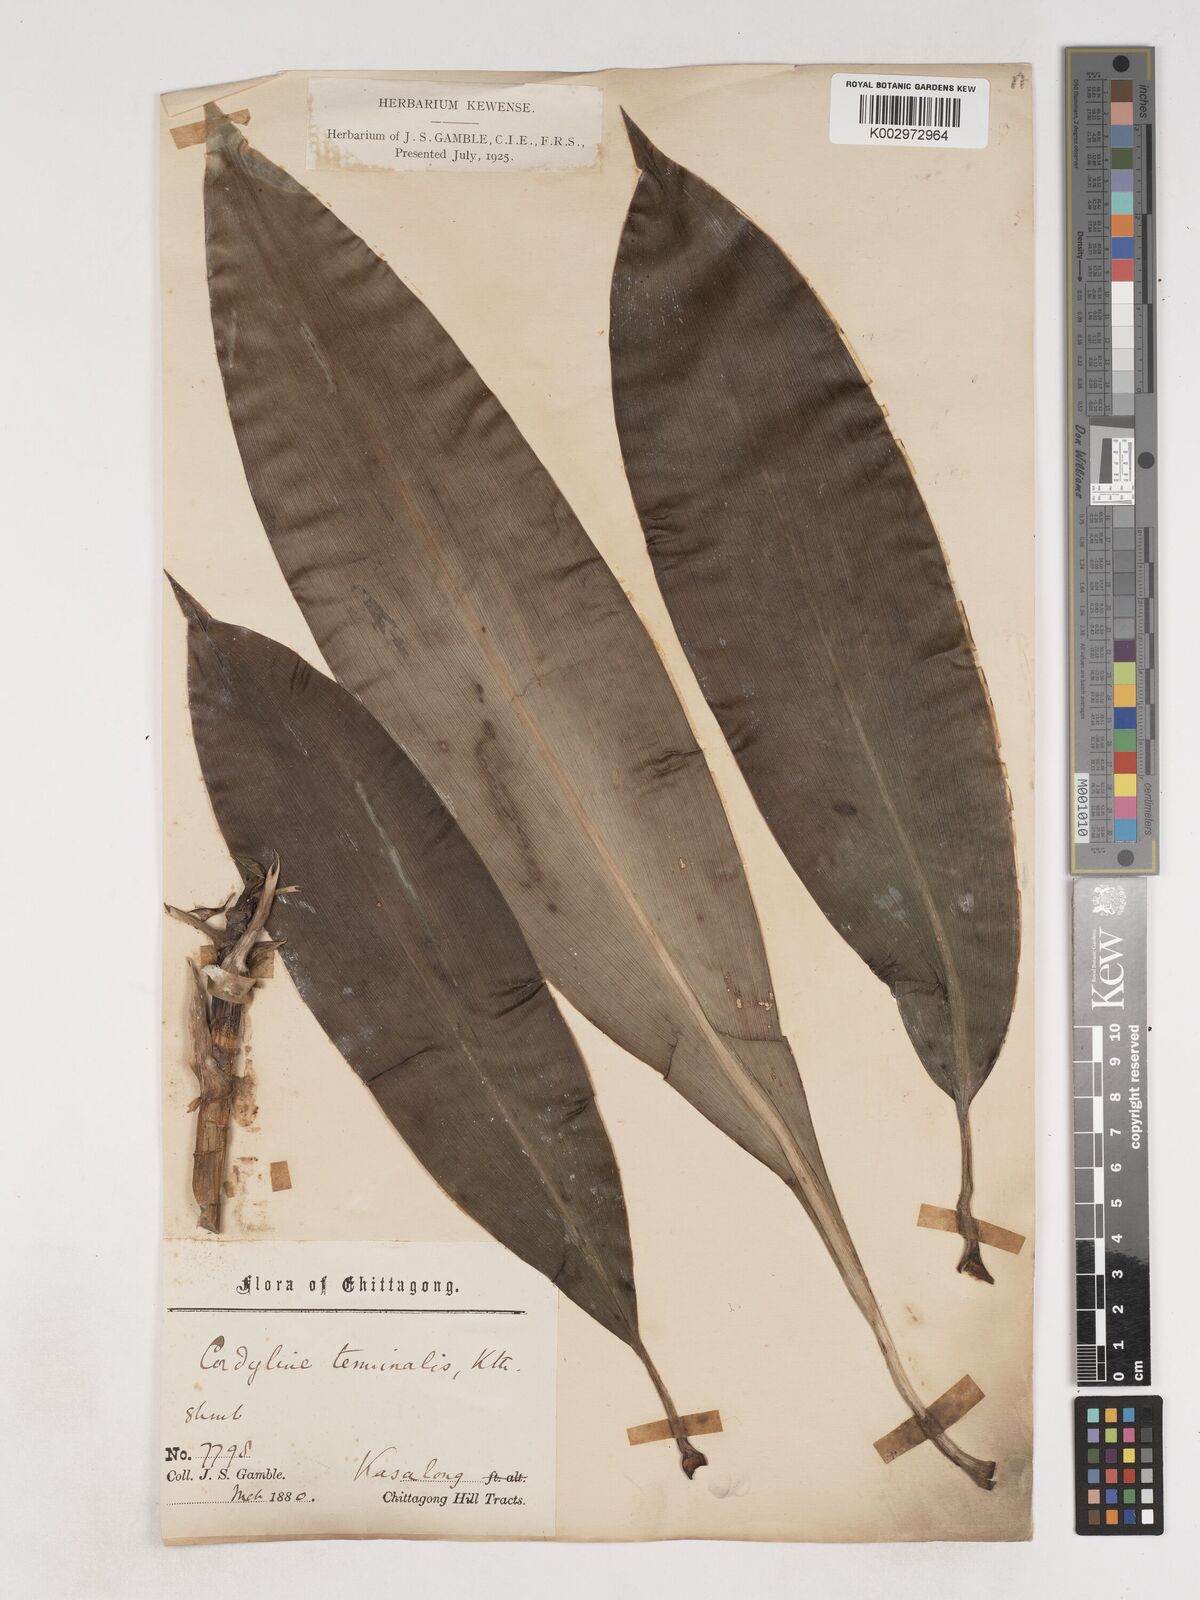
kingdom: Plantae
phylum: Tracheophyta
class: Liliopsida
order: Asparagales
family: Asparagaceae
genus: Cordyline
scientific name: Cordyline fruticosa
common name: Good-luck-plant
